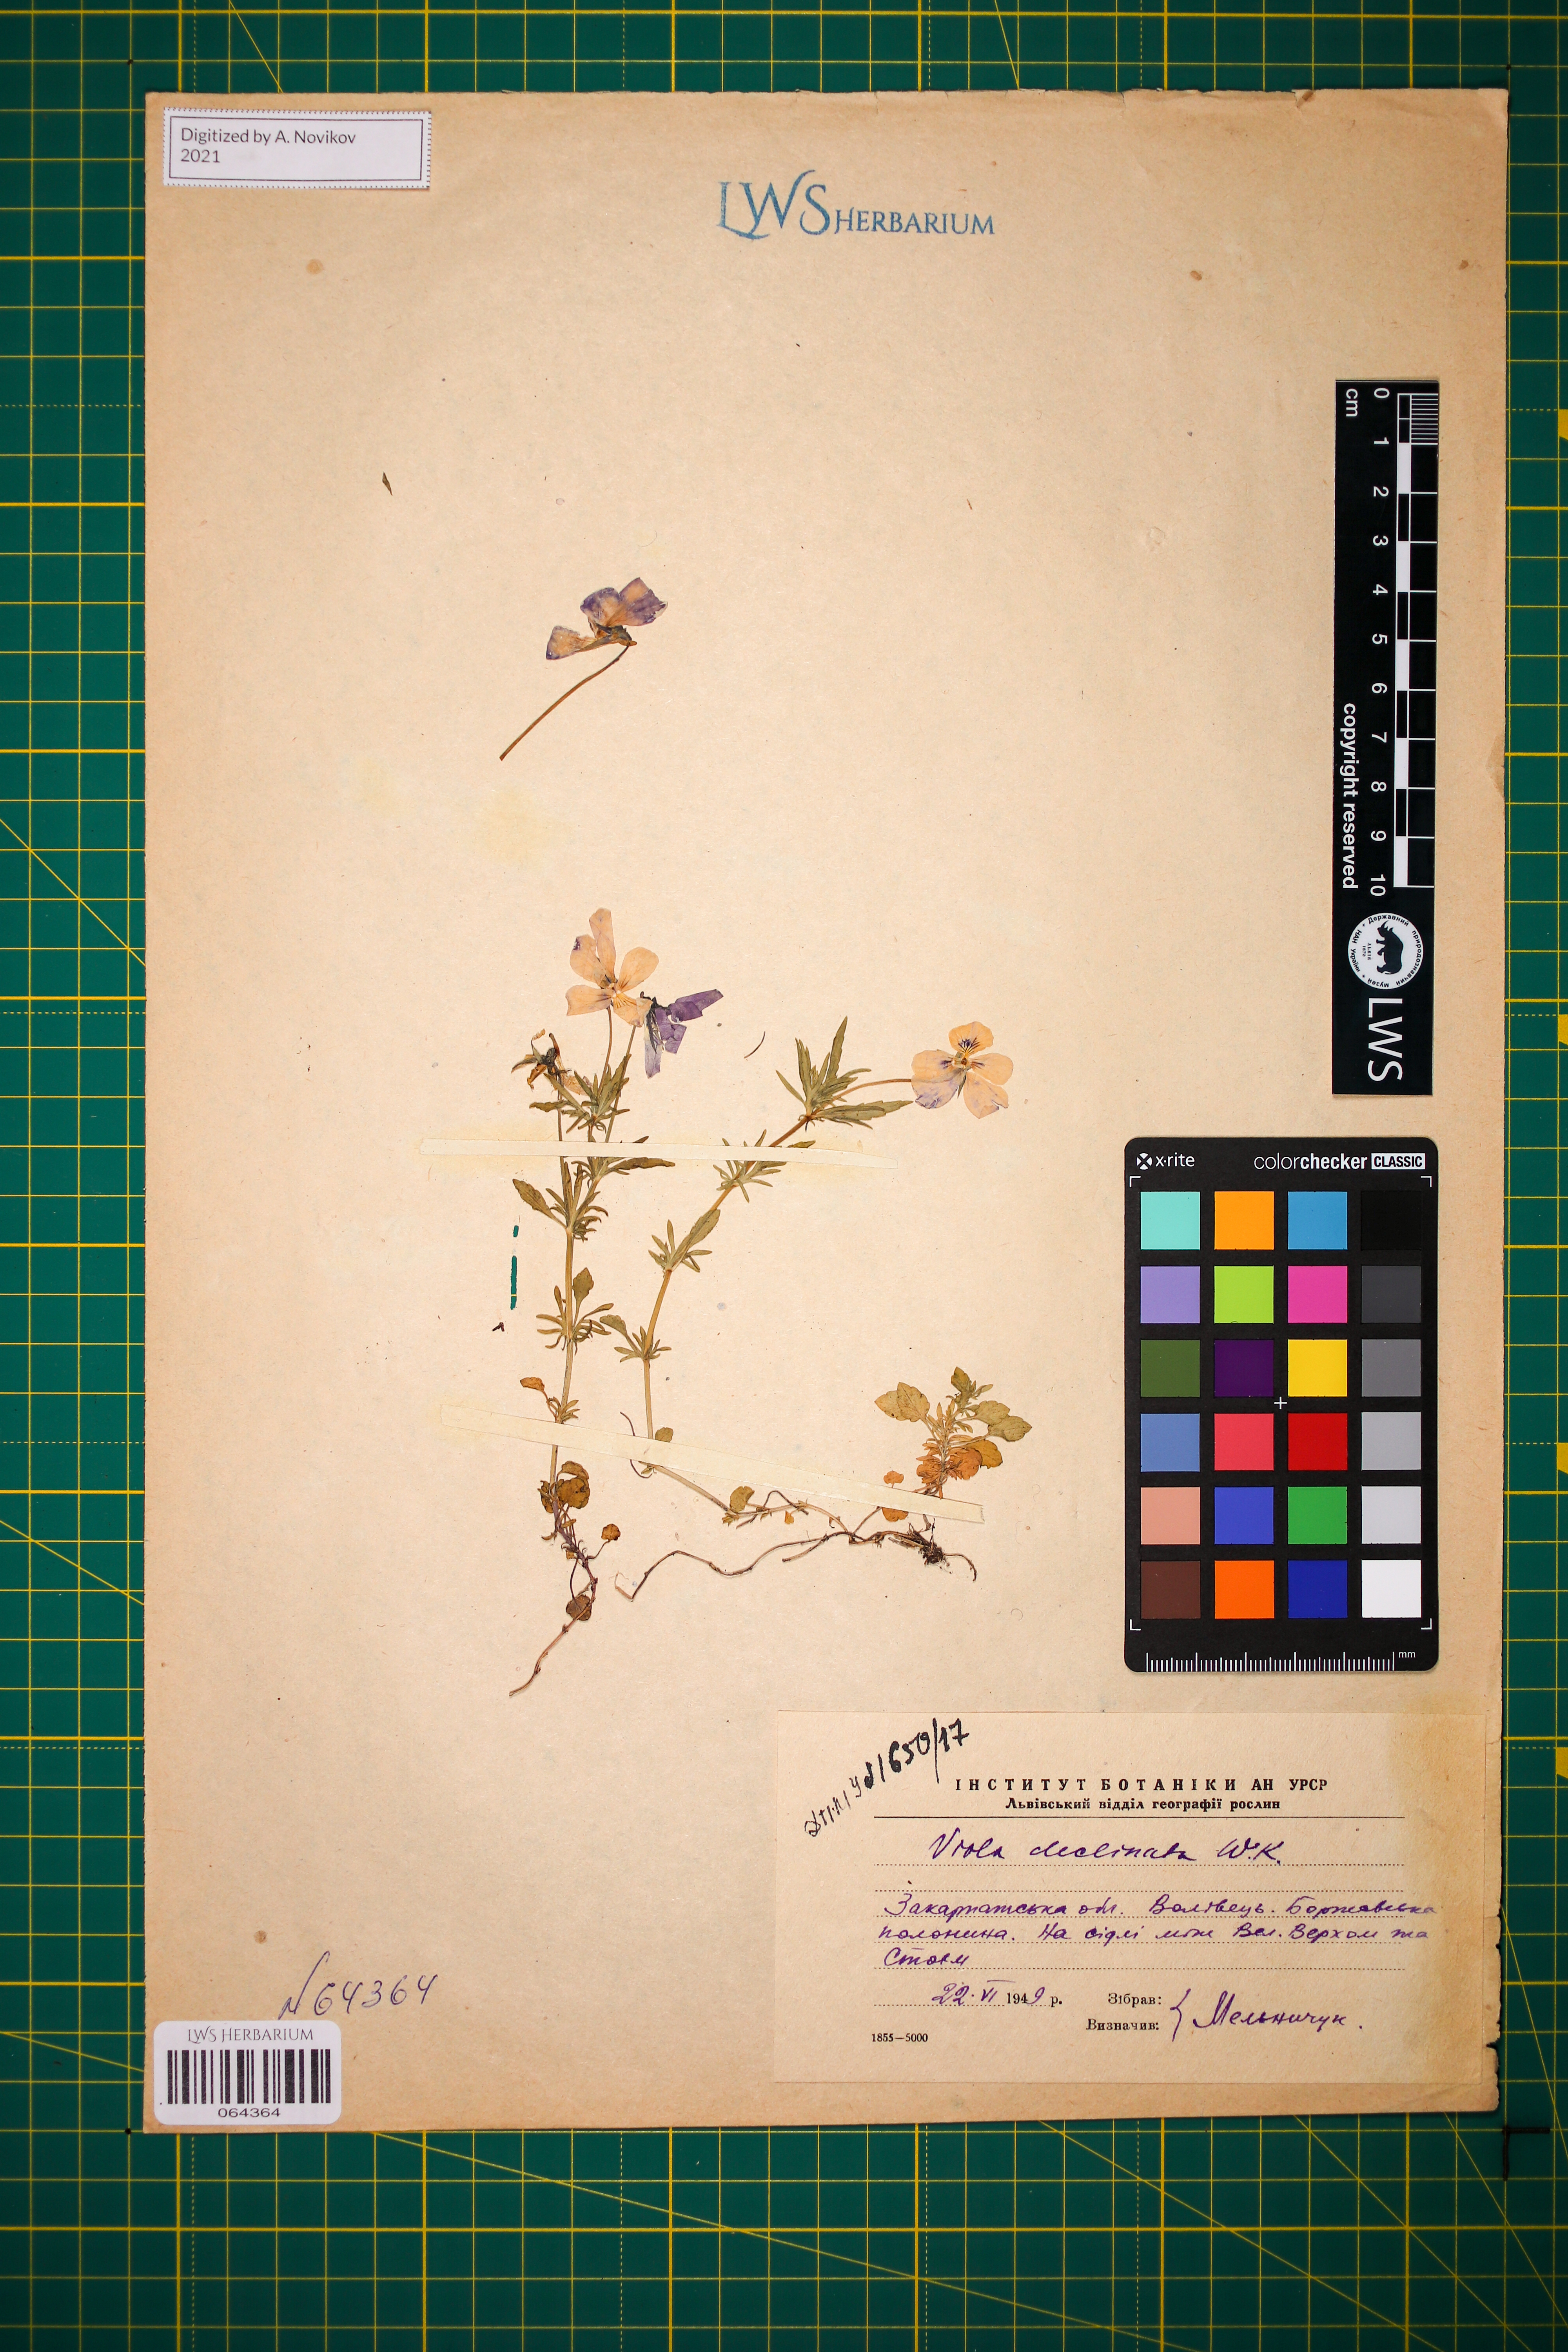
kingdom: Plantae
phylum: Tracheophyta
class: Magnoliopsida
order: Malpighiales
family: Violaceae
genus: Viola
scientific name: Viola declinata
